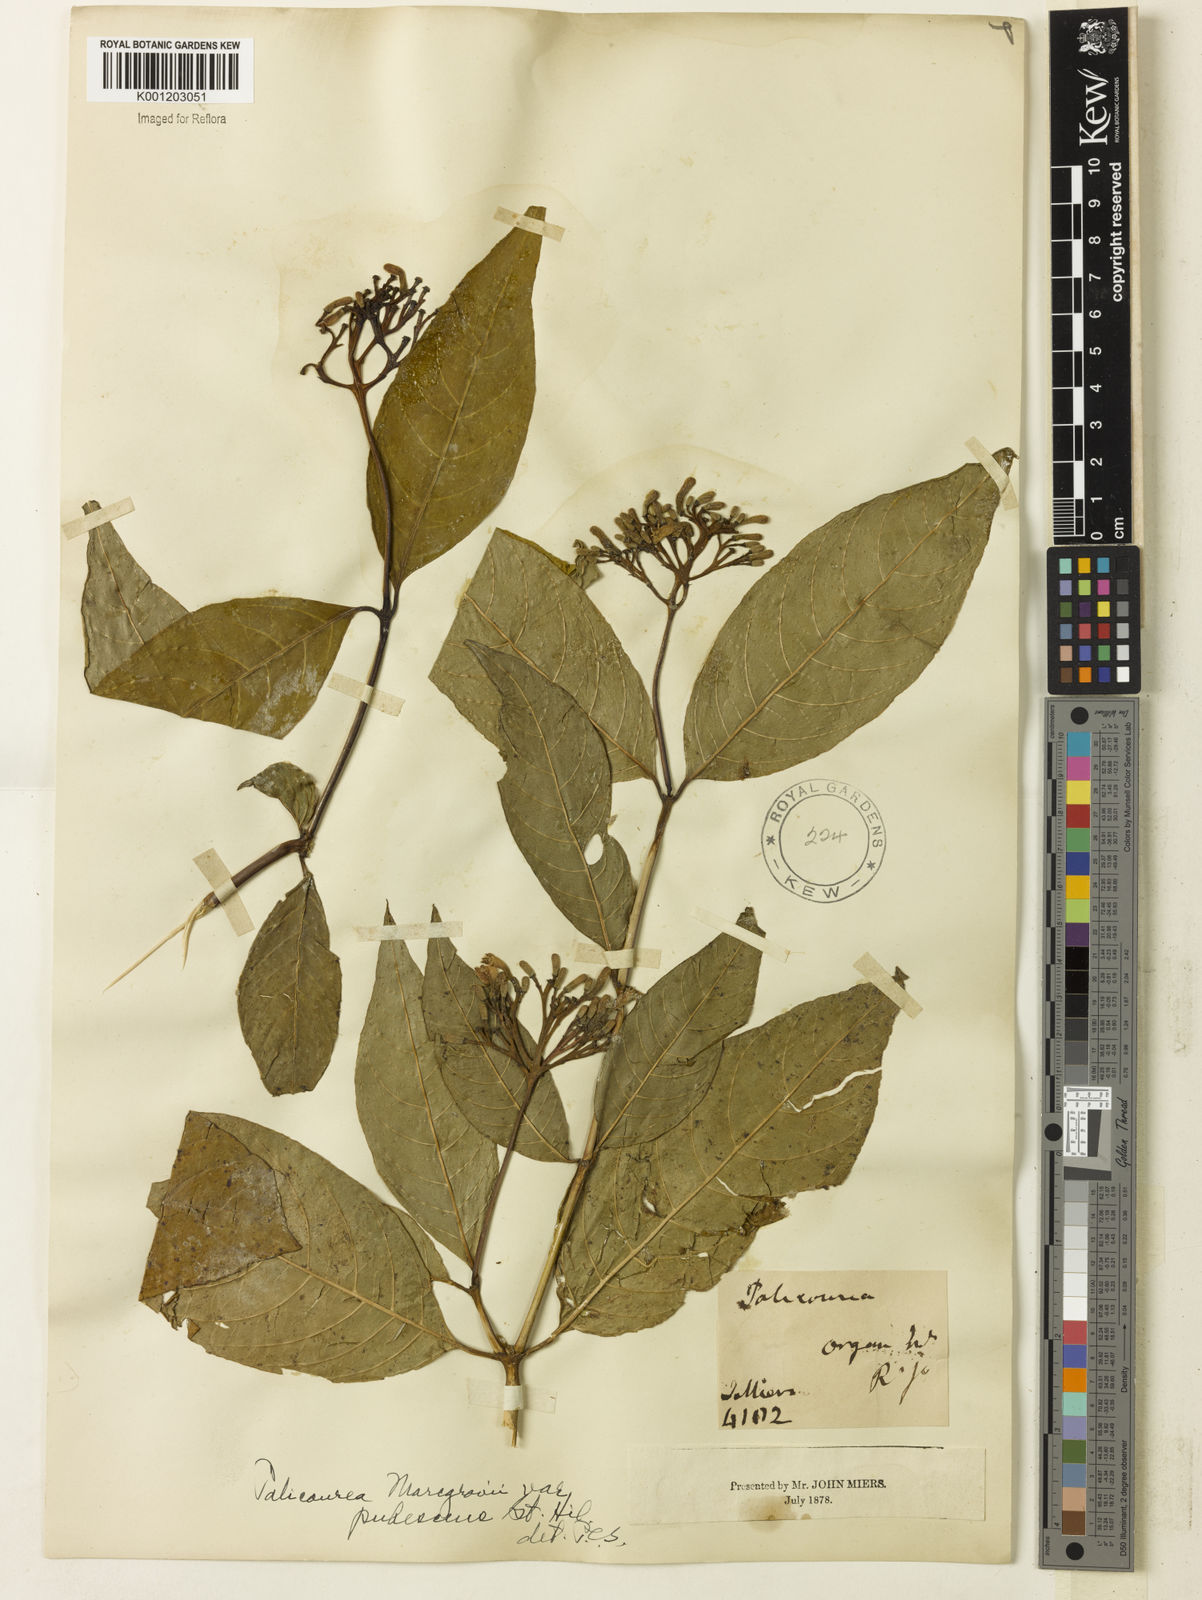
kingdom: Plantae
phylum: Tracheophyta
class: Magnoliopsida
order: Gentianales
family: Rubiaceae
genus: Palicourea
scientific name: Palicourea marcgravii
